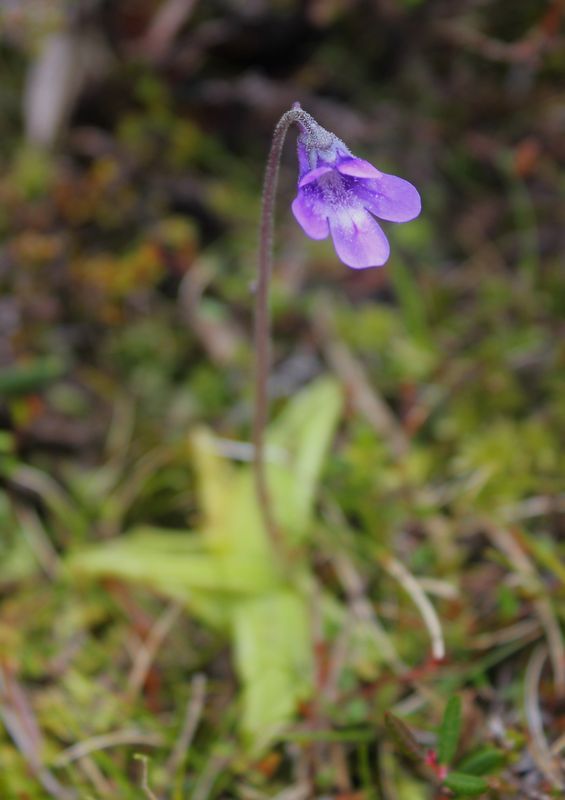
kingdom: Plantae
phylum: Tracheophyta
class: Magnoliopsida
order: Lamiales
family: Lentibulariaceae
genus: Pinguicula
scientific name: Pinguicula vulgaris
